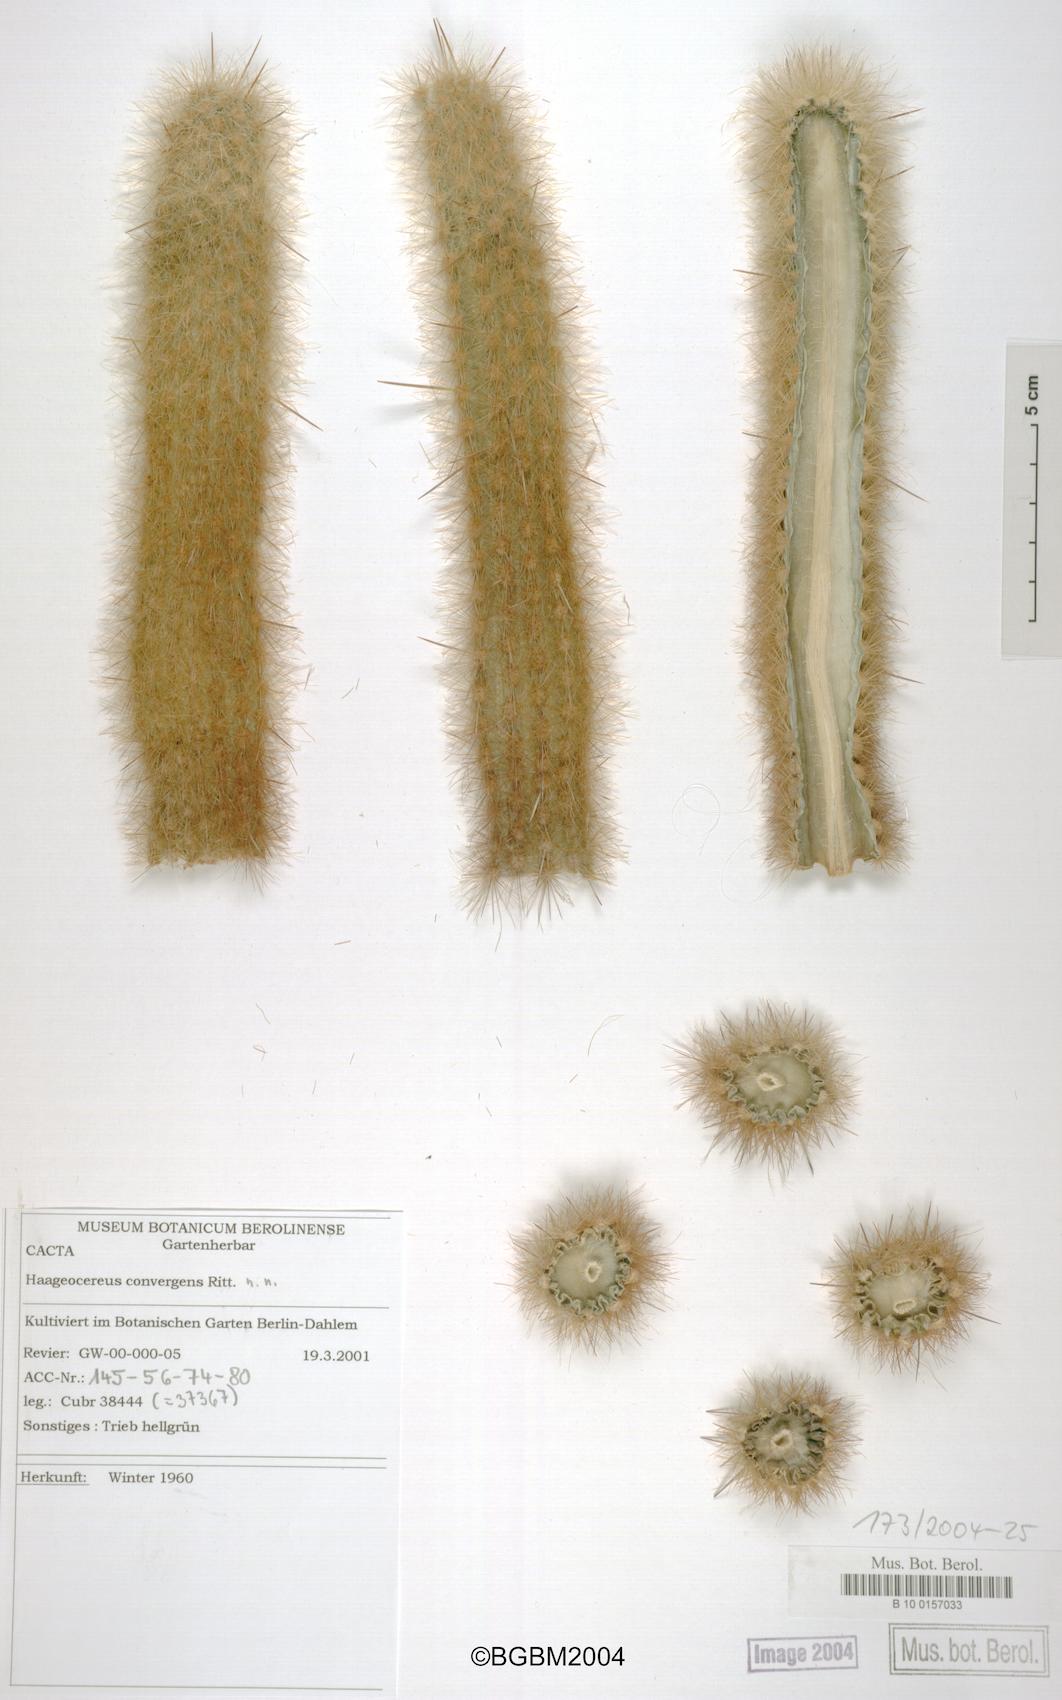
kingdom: Plantae
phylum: Tracheophyta
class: Magnoliopsida
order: Caryophyllales
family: Cactaceae
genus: Borzicactus
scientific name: Borzicactus acanthurus
